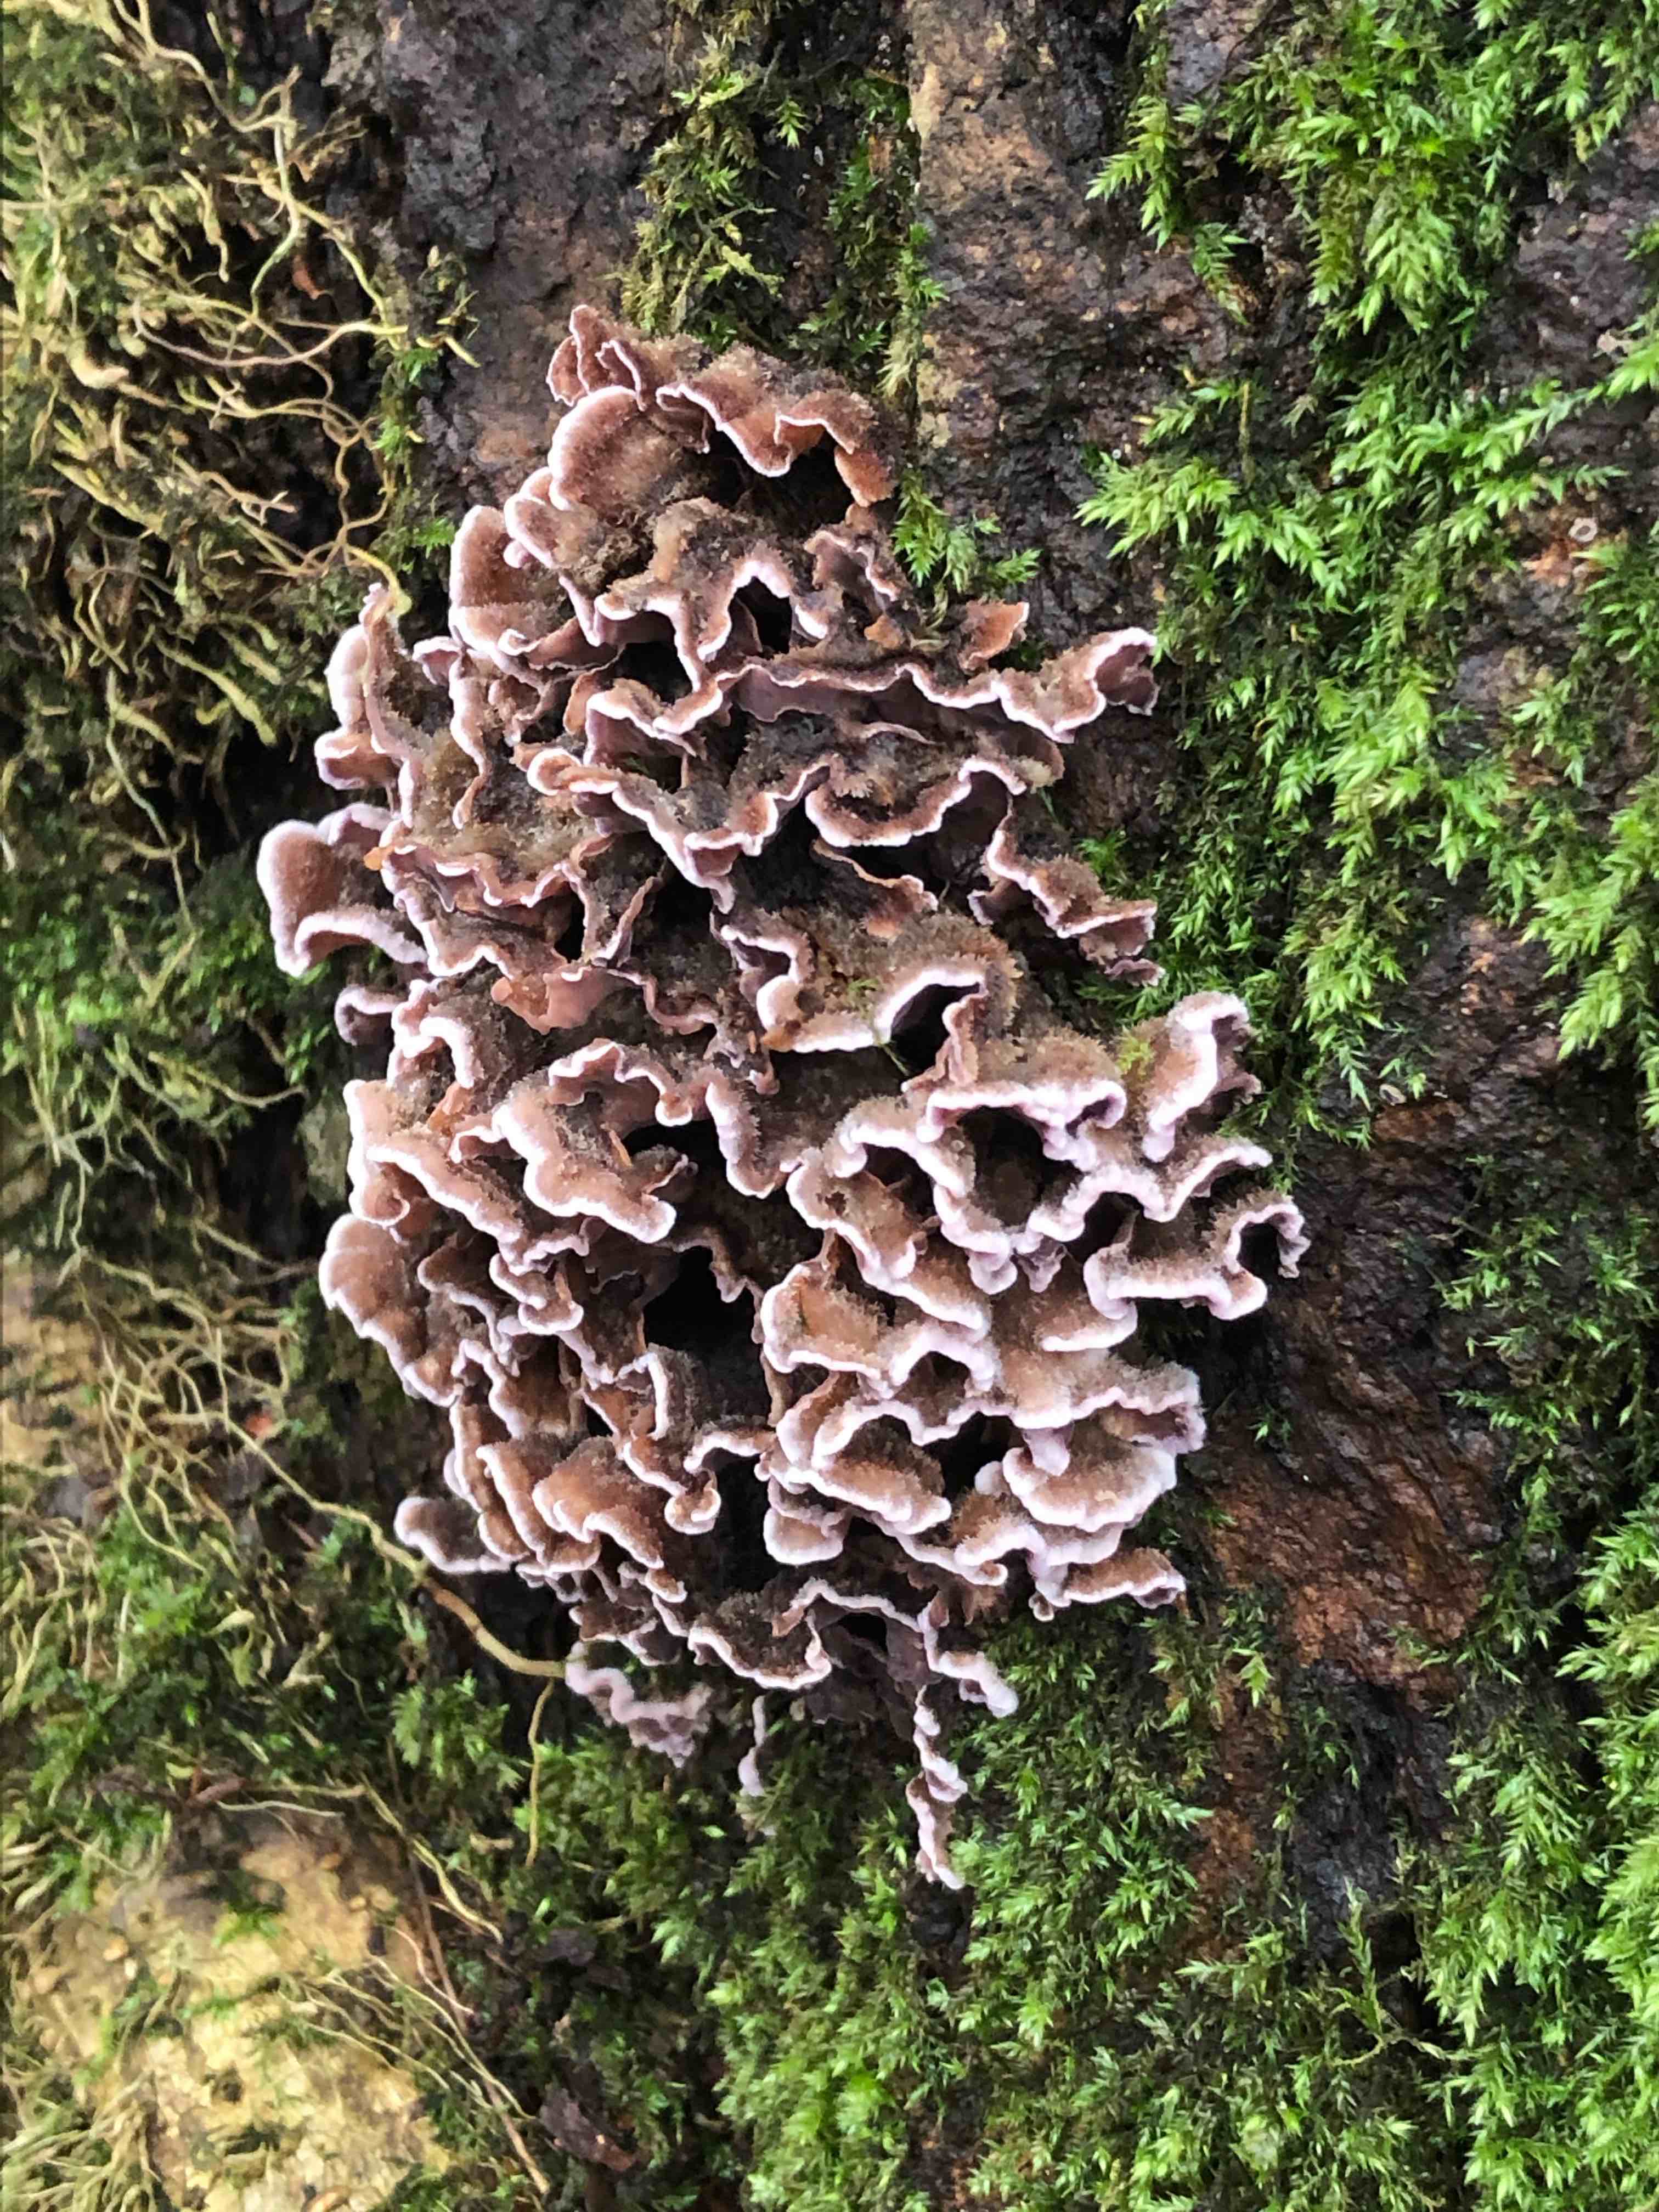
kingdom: Fungi
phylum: Basidiomycota
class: Agaricomycetes
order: Agaricales
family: Cyphellaceae
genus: Chondrostereum
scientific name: Chondrostereum purpureum
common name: purpurlædersvamp
